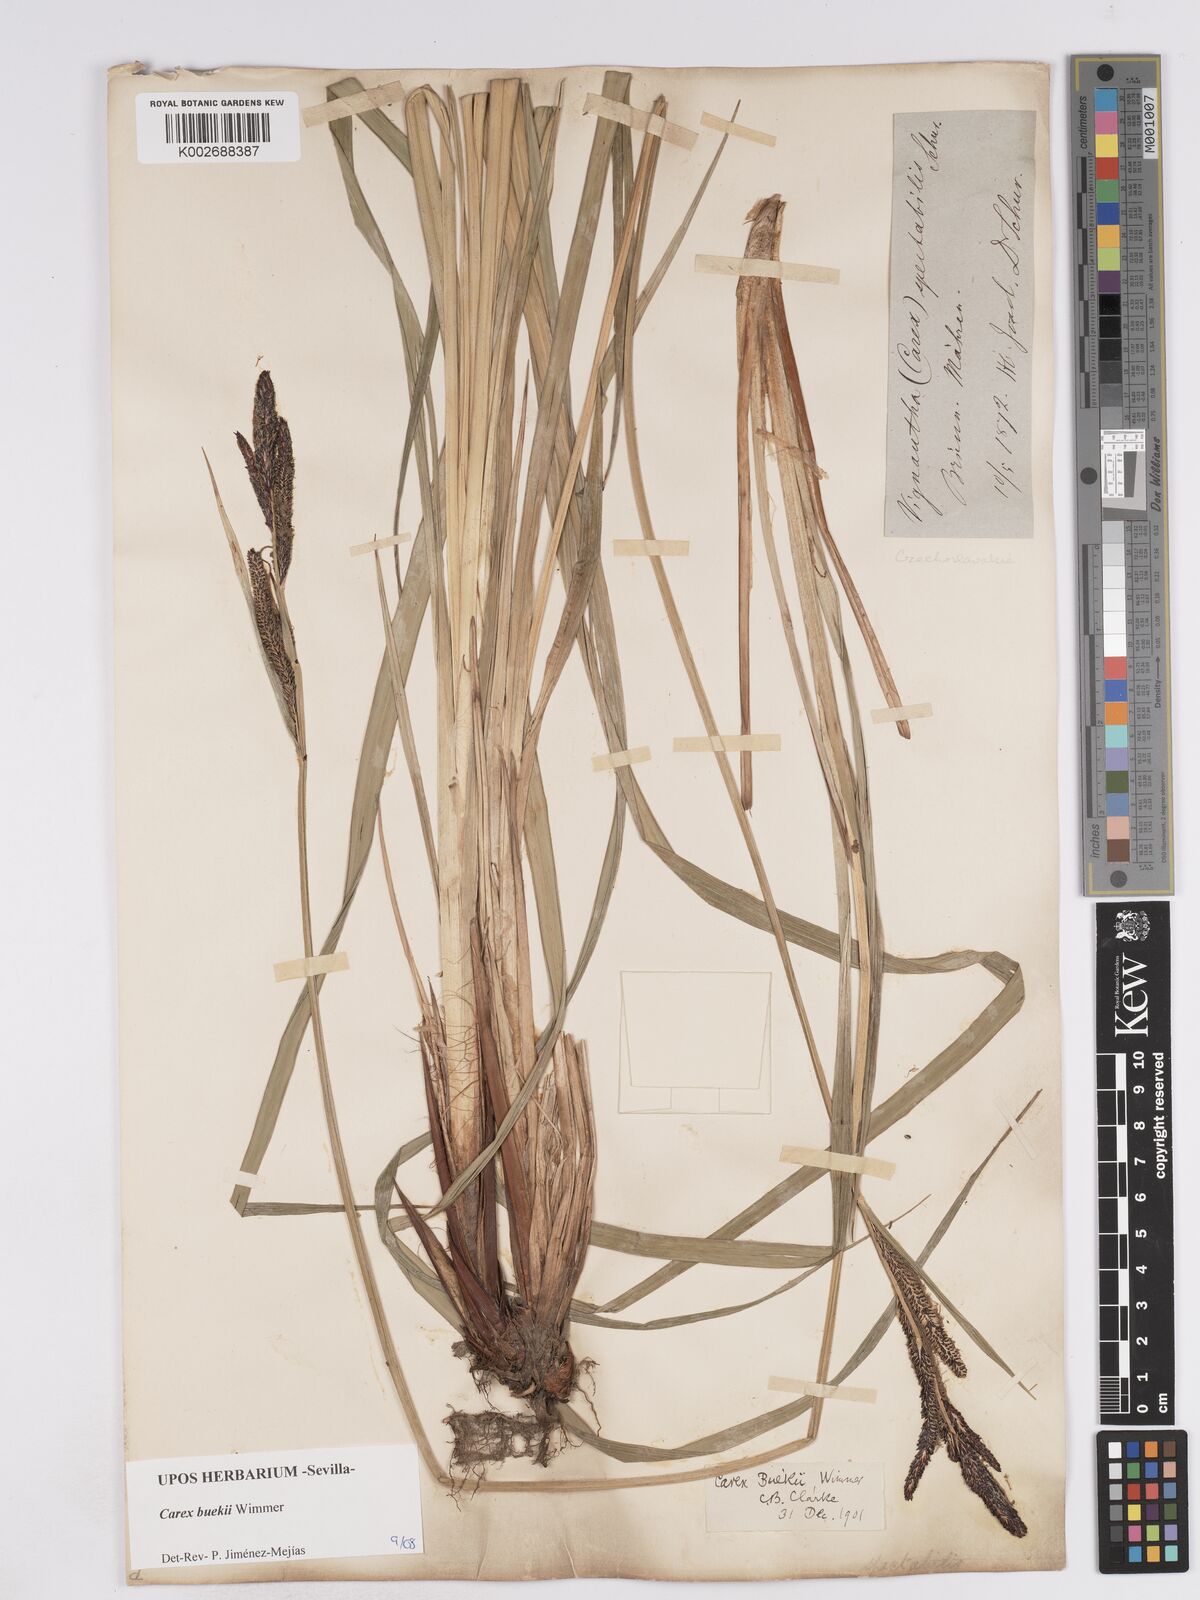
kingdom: Plantae
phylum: Tracheophyta
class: Liliopsida
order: Poales
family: Cyperaceae
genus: Carex
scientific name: Carex buekii
